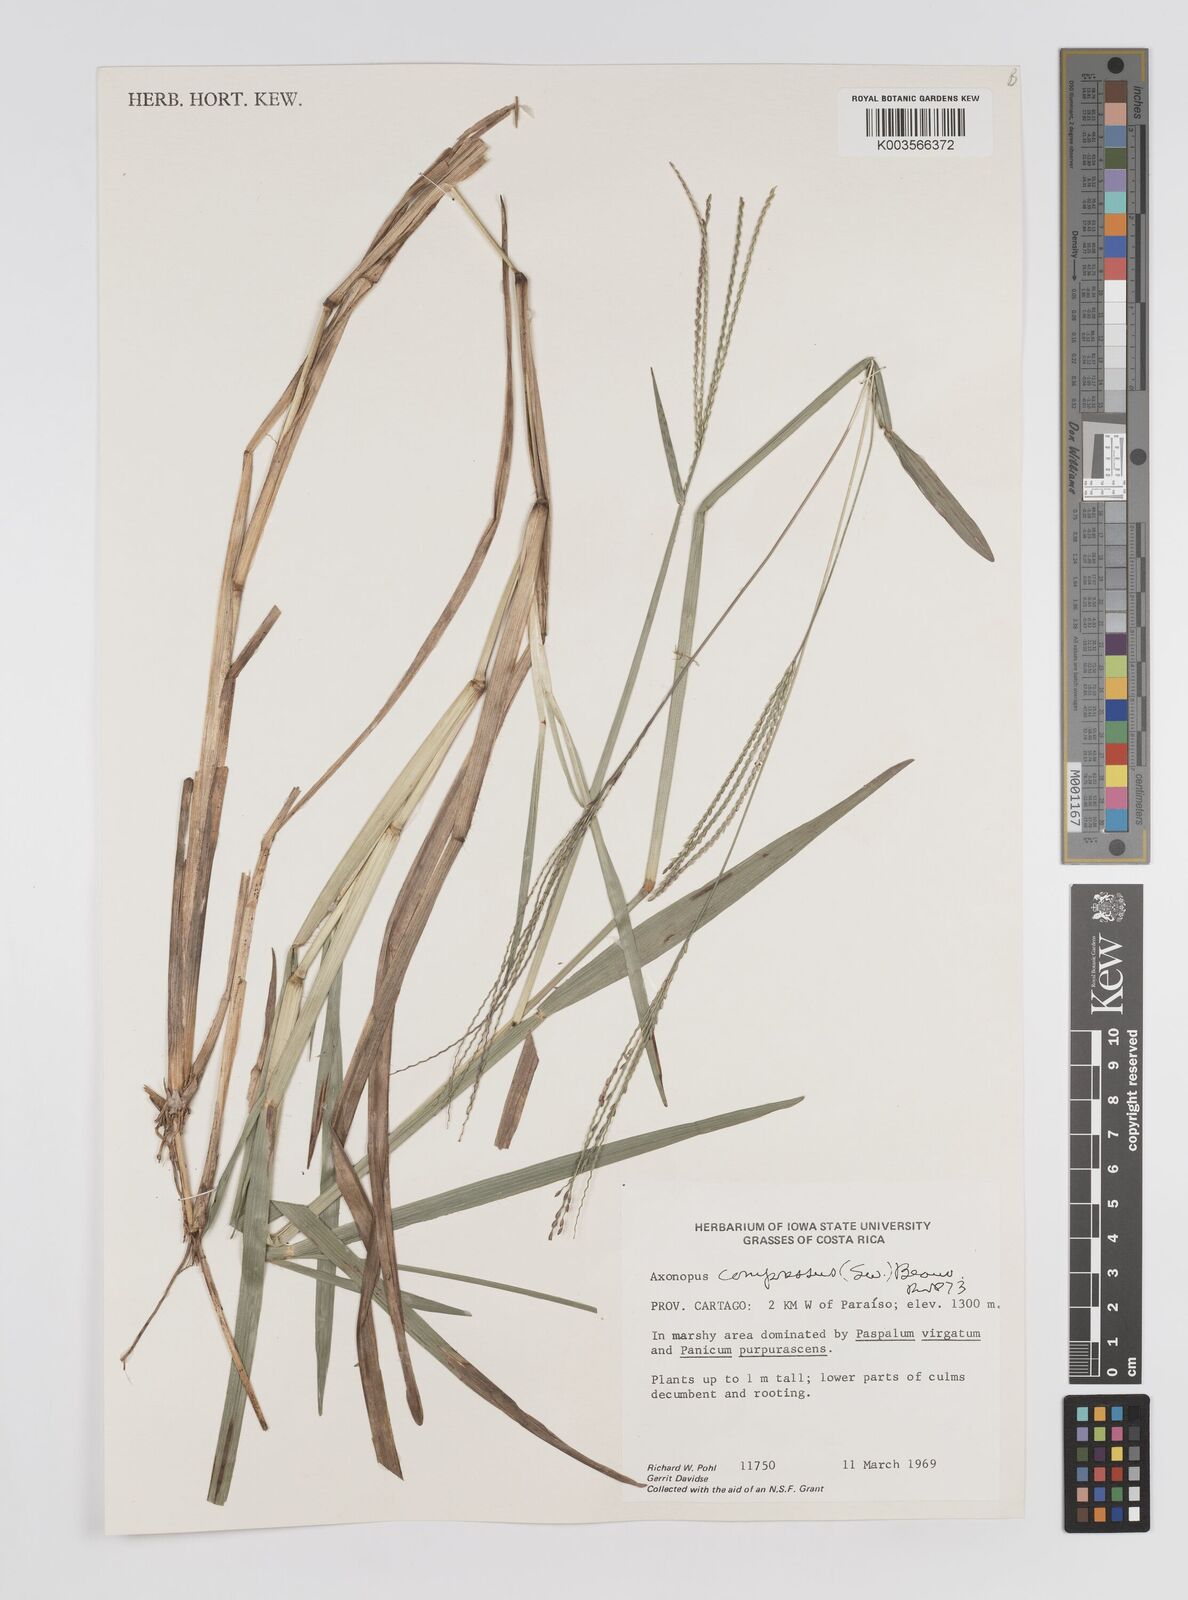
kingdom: Plantae
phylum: Tracheophyta
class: Liliopsida
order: Poales
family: Poaceae
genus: Axonopus
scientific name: Axonopus compressus
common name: American carpet grass
